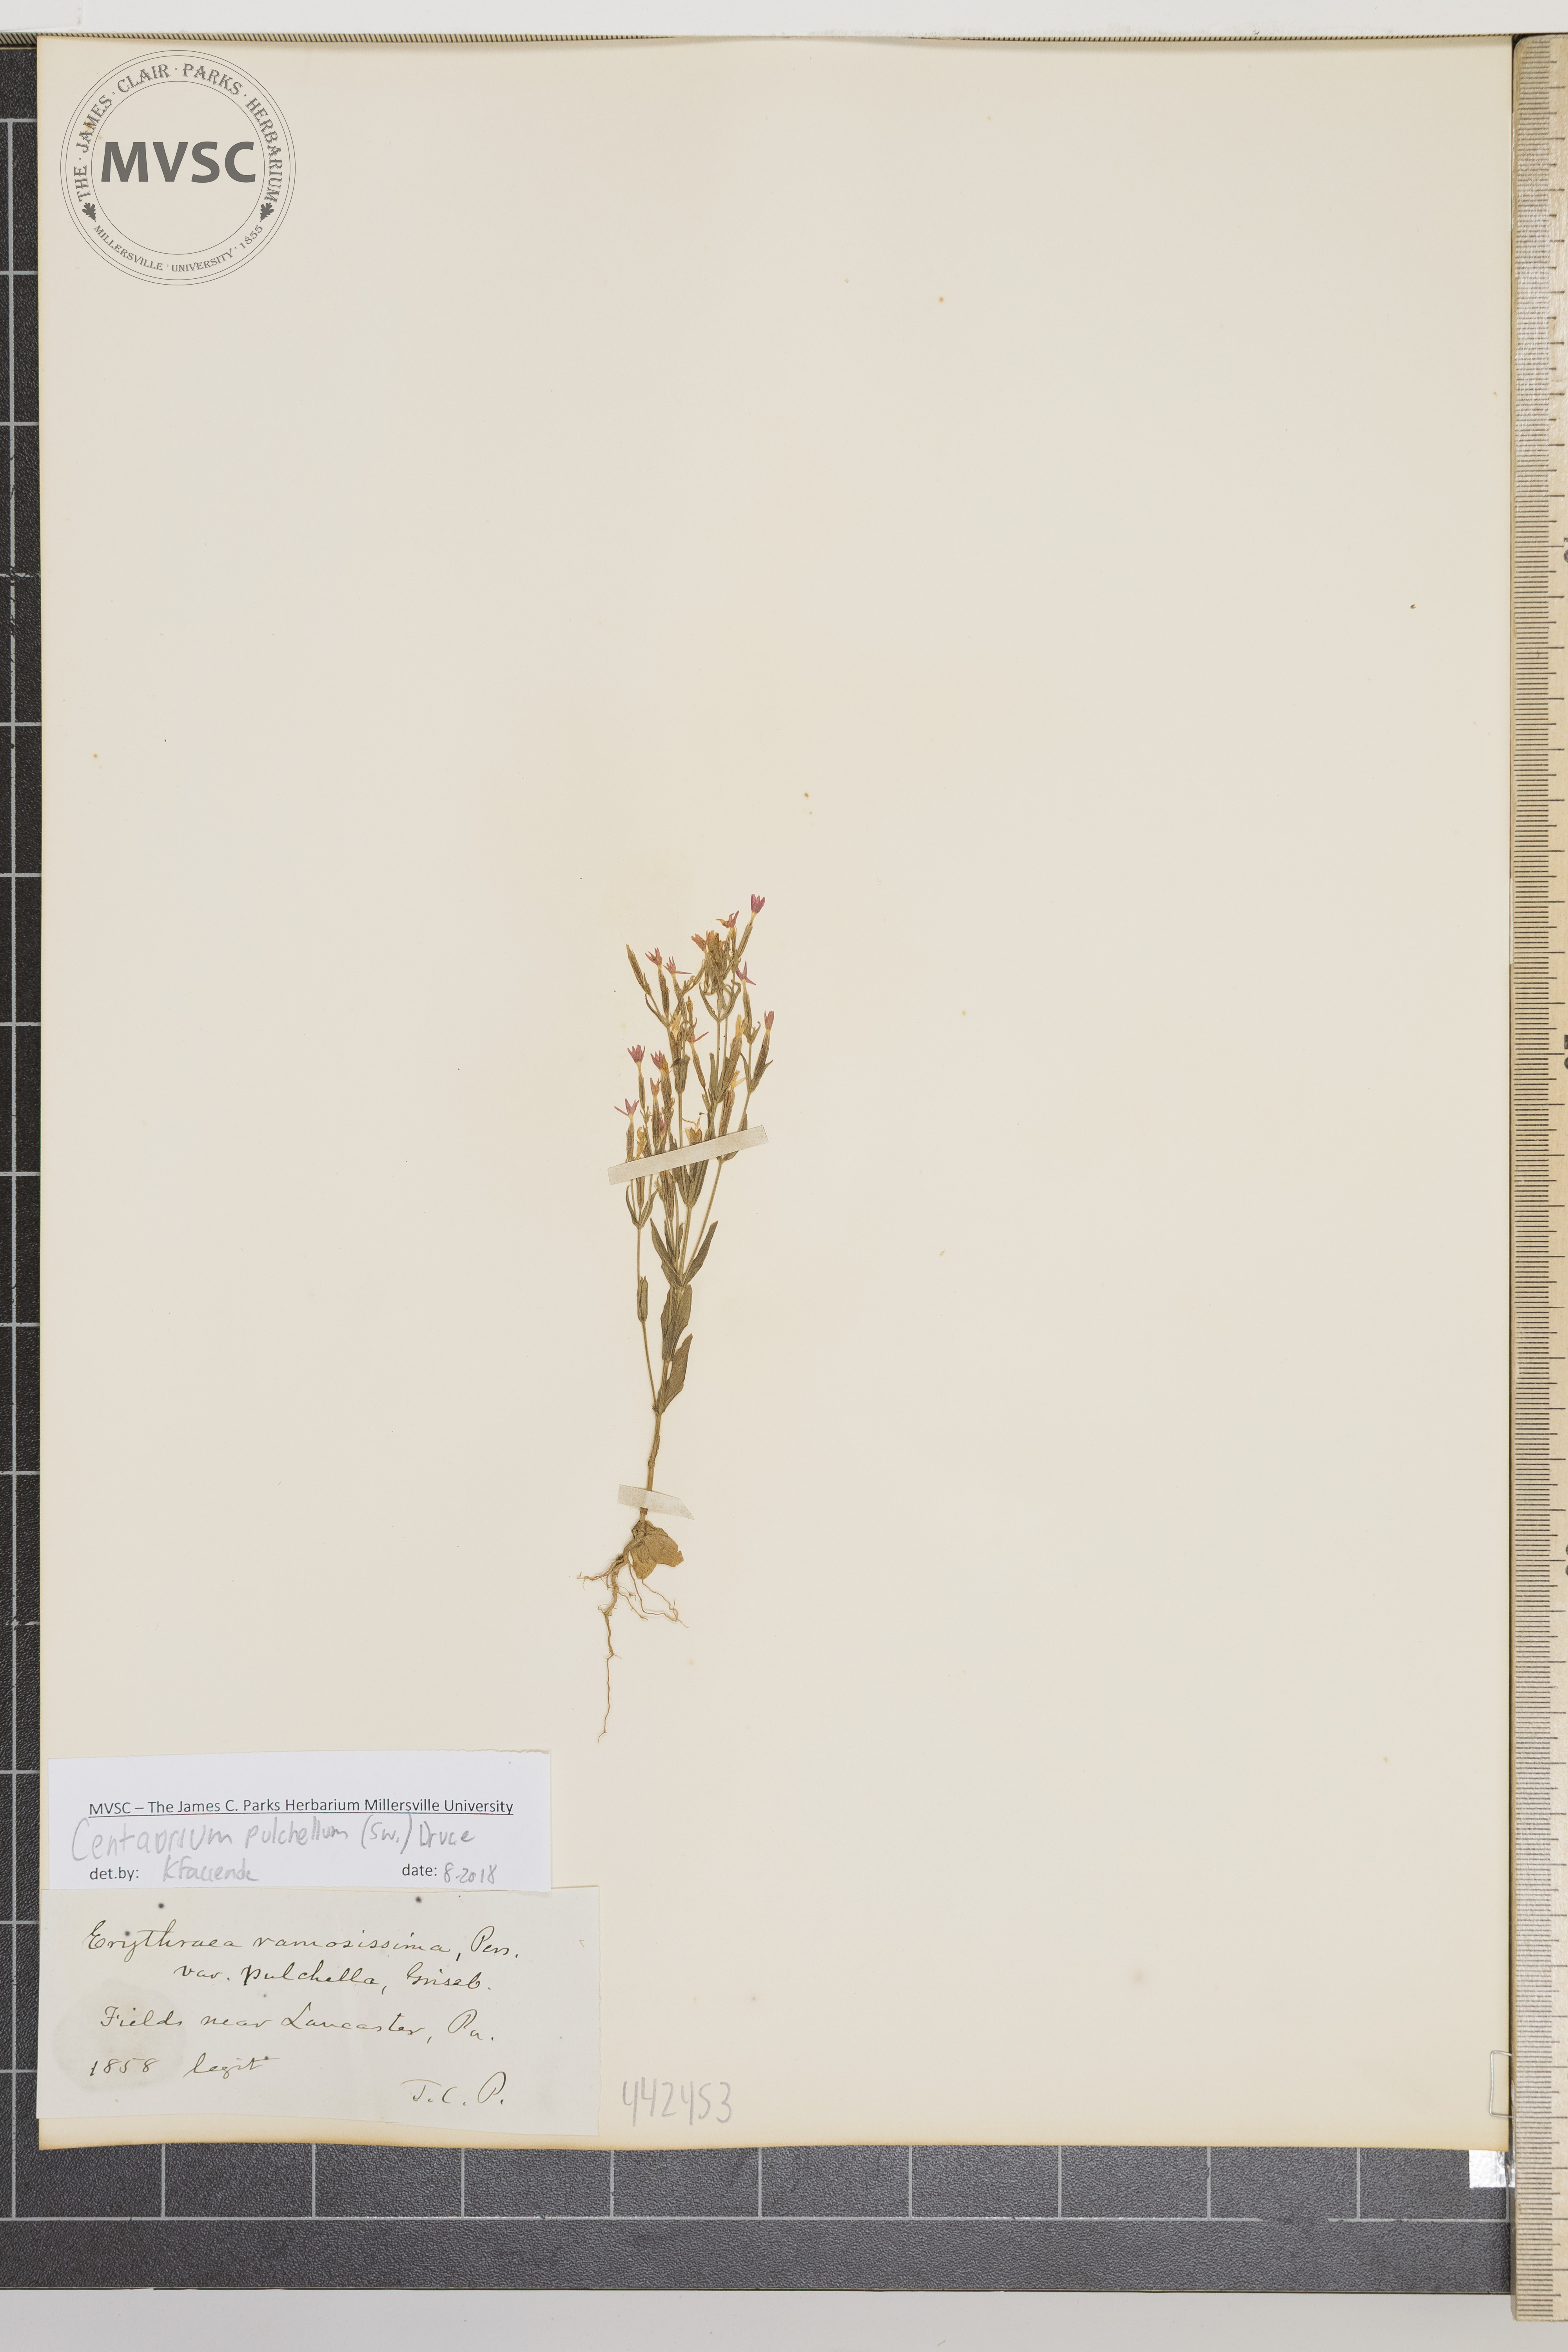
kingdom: Plantae
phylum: Tracheophyta
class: Magnoliopsida
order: Gentianales
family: Gentianaceae
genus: Centaurium
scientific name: Centaurium pulchellum
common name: Lesser centaury
